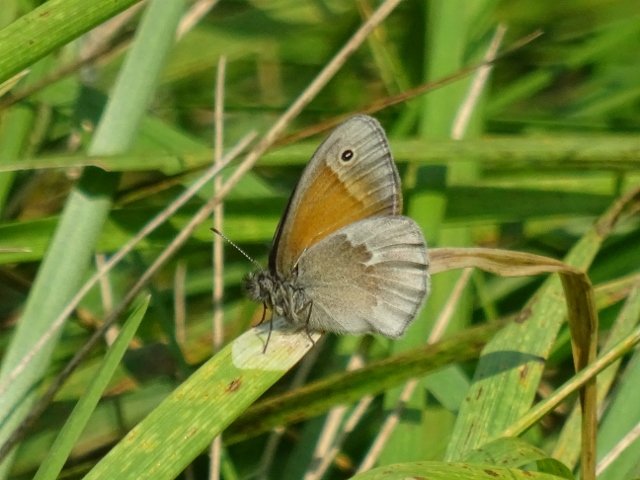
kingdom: Animalia
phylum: Arthropoda
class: Insecta
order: Lepidoptera
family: Nymphalidae
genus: Coenonympha
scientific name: Coenonympha tullia
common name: Large Heath
